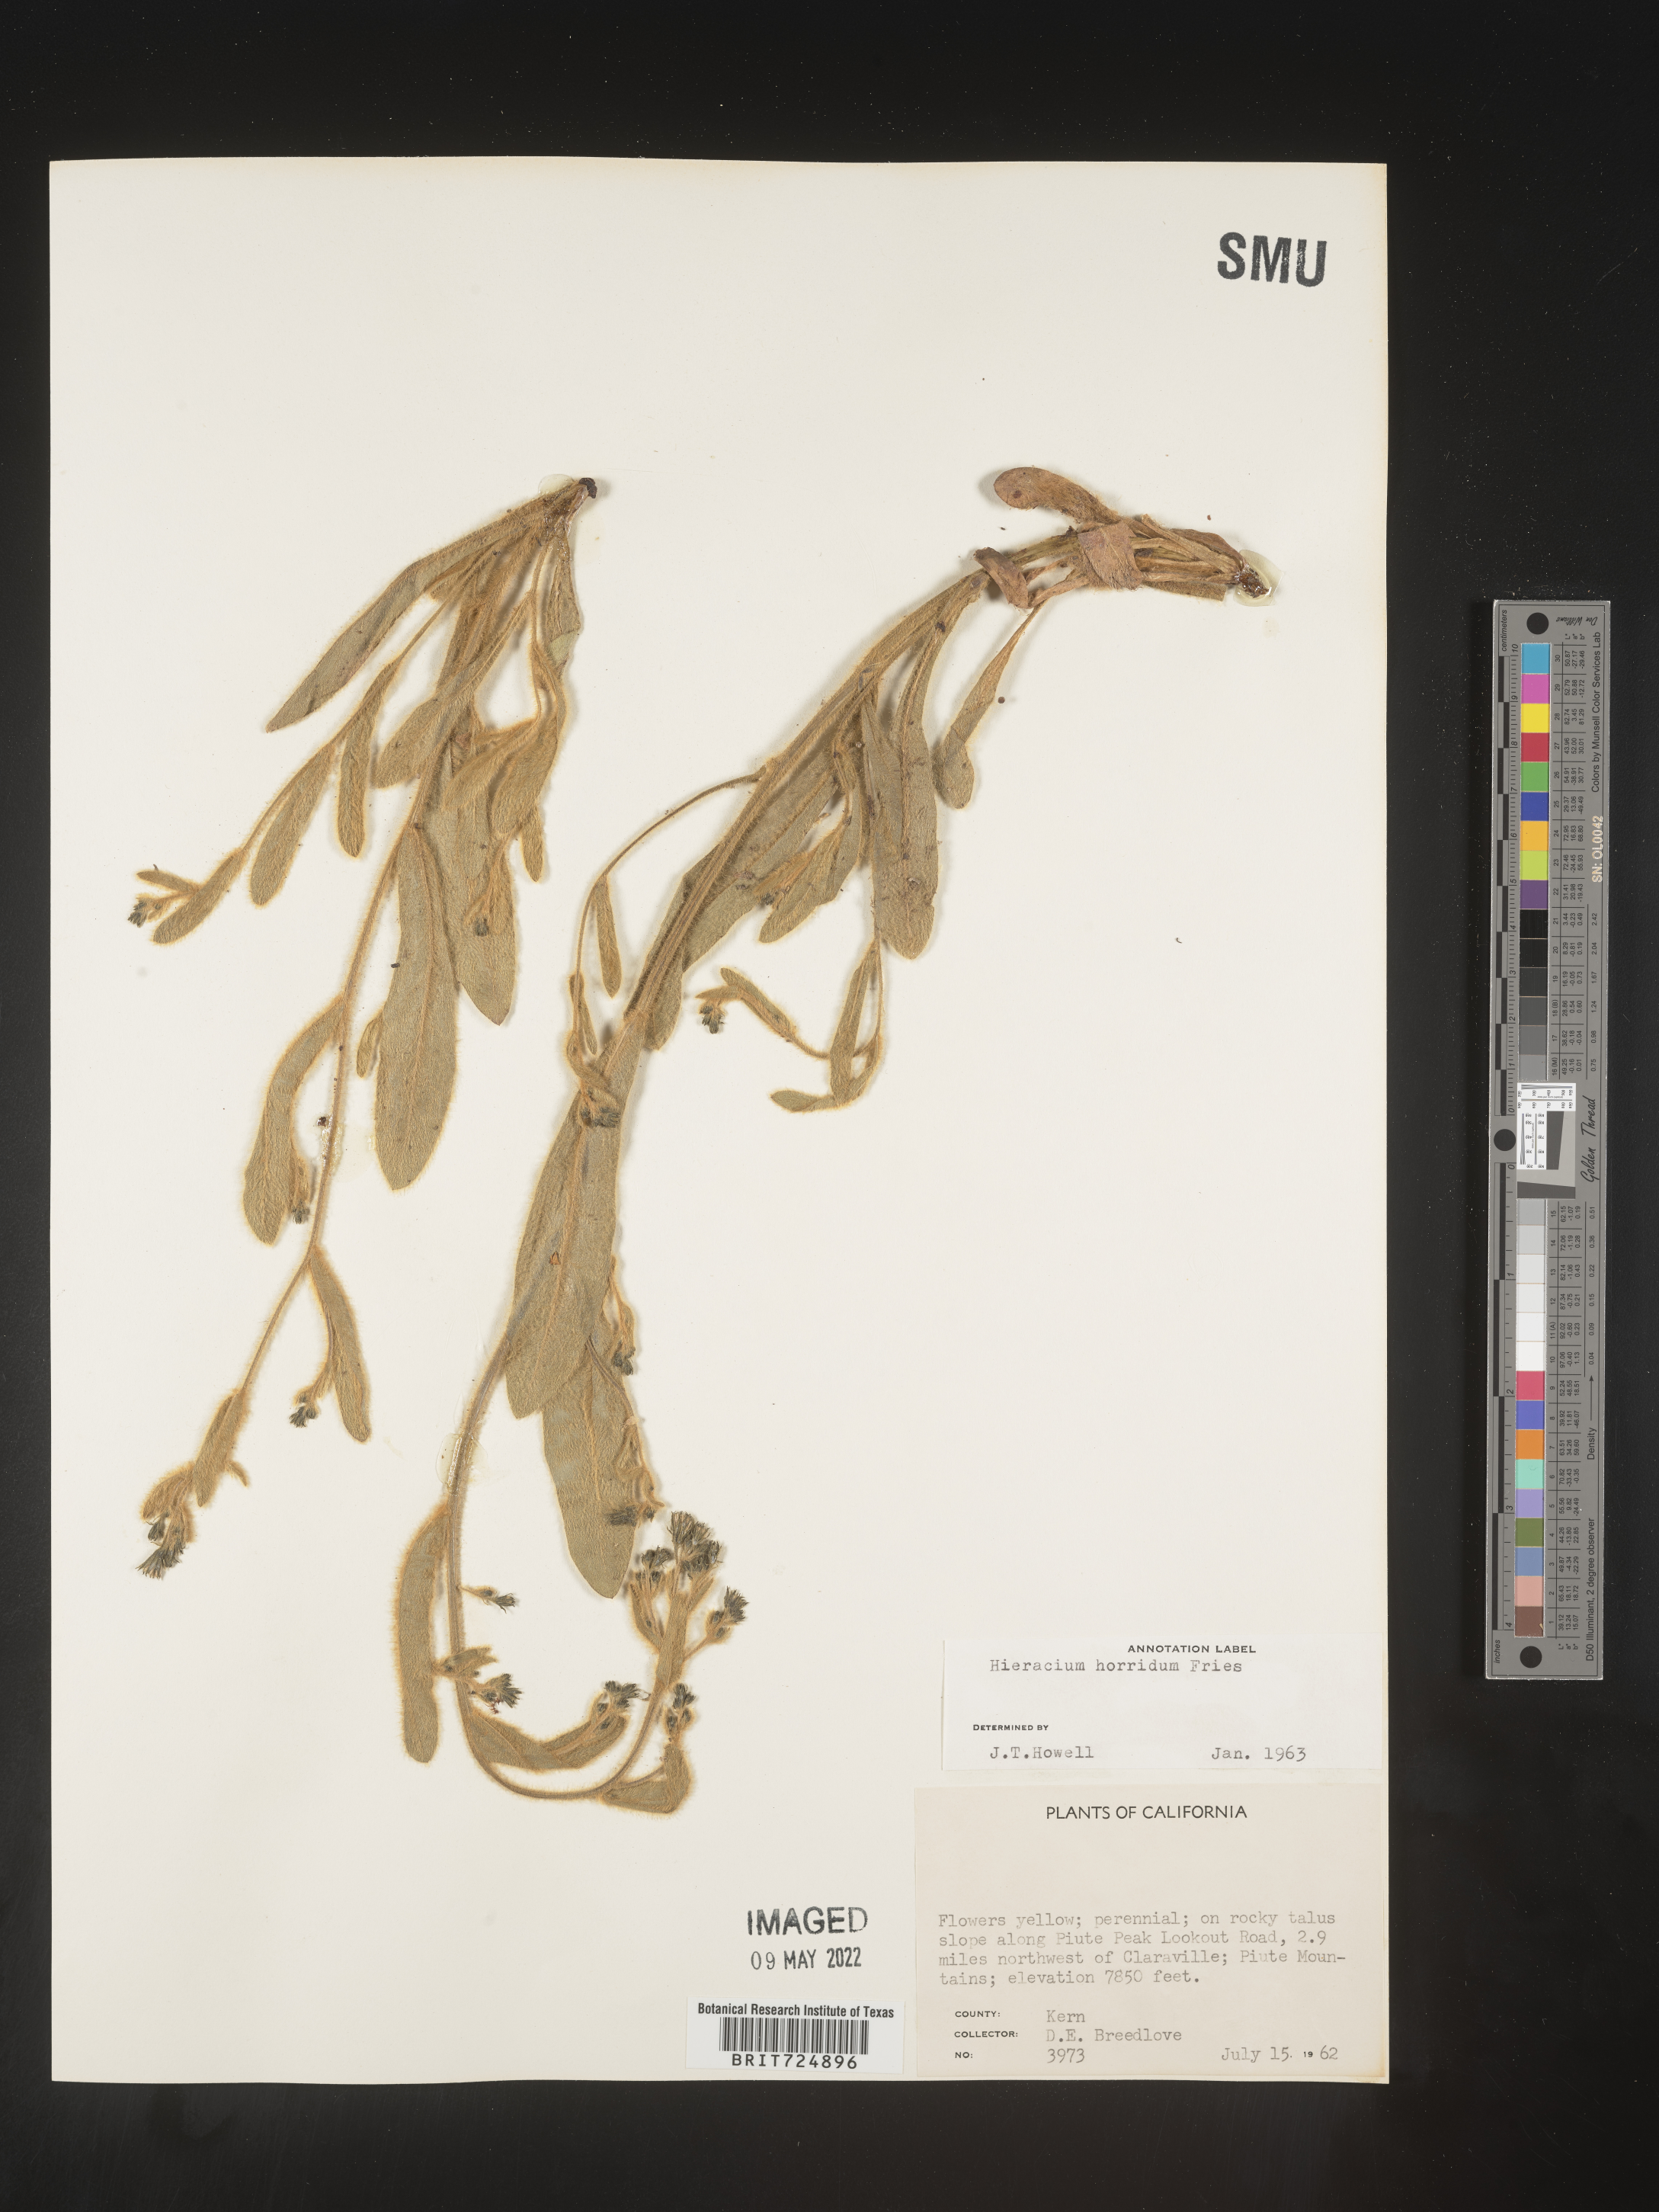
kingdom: Plantae
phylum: Tracheophyta
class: Magnoliopsida
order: Asterales
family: Asteraceae
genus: Hieracium
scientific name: Hieracium
